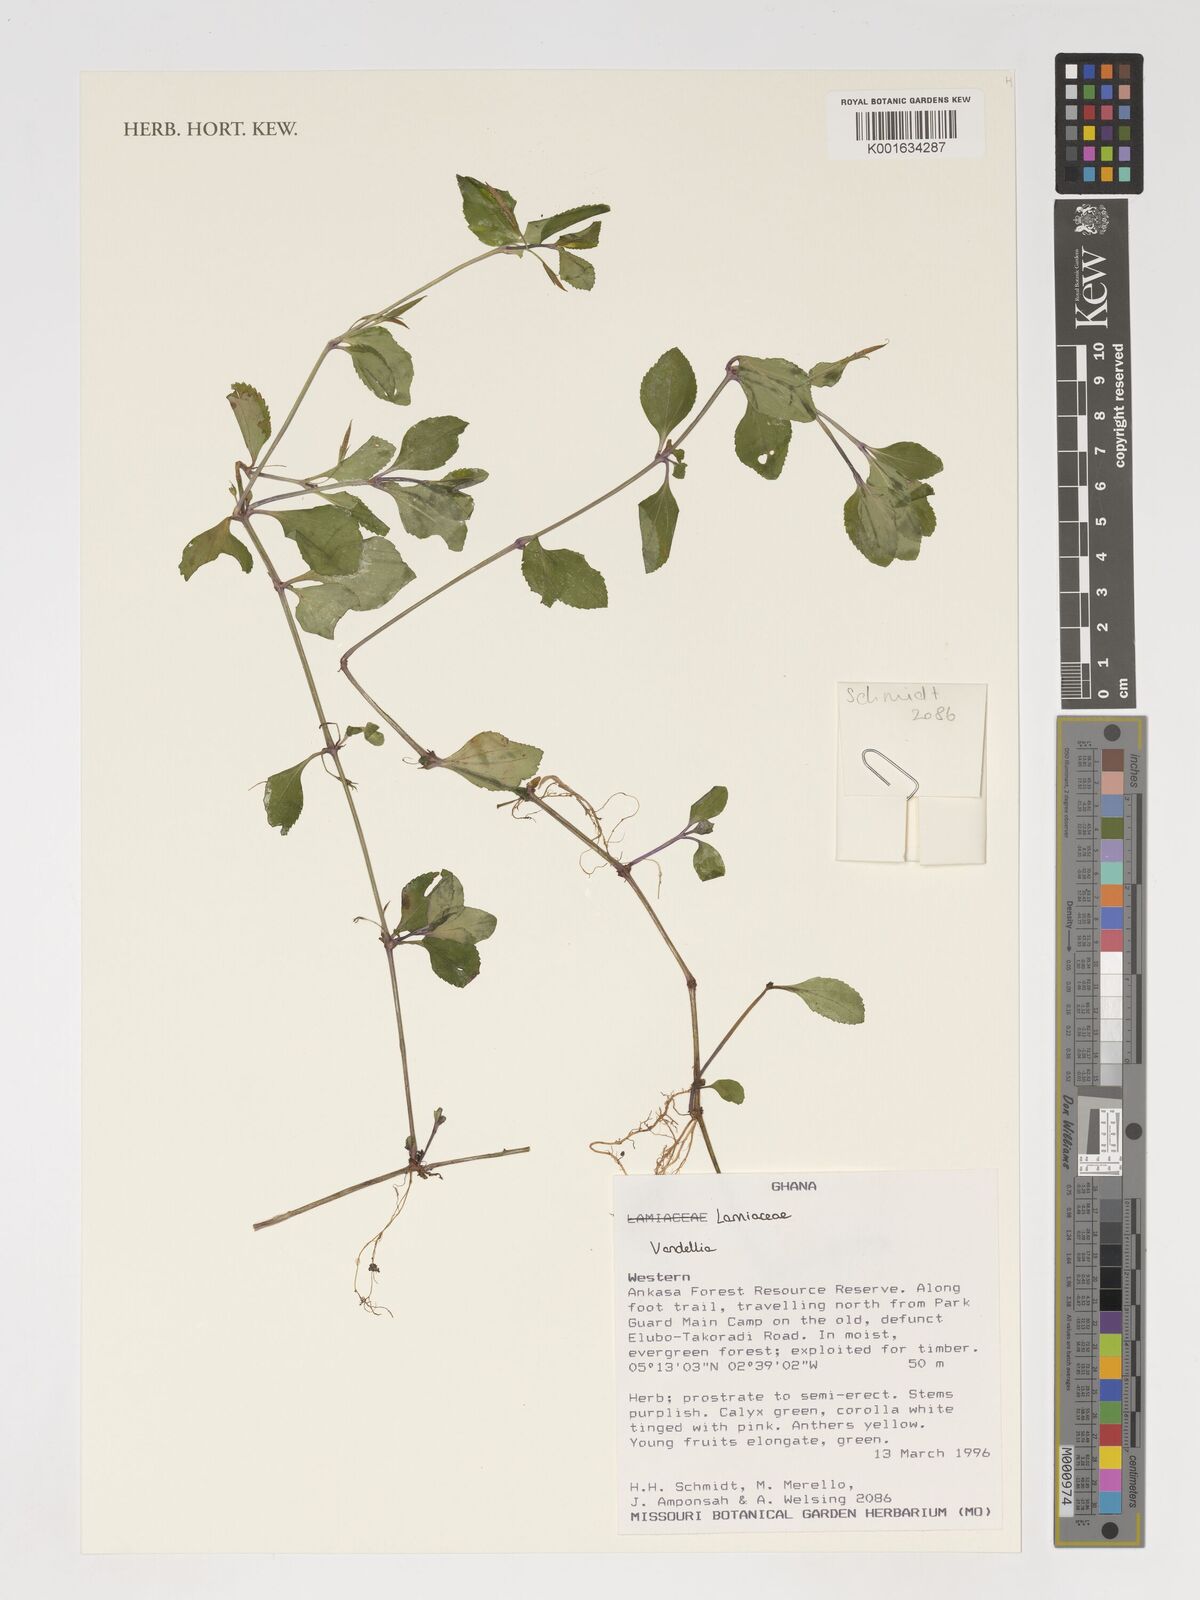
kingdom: Plantae
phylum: Tracheophyta
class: Magnoliopsida
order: Lamiales
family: Linderniaceae
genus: Vandellia
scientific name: Vandellia
